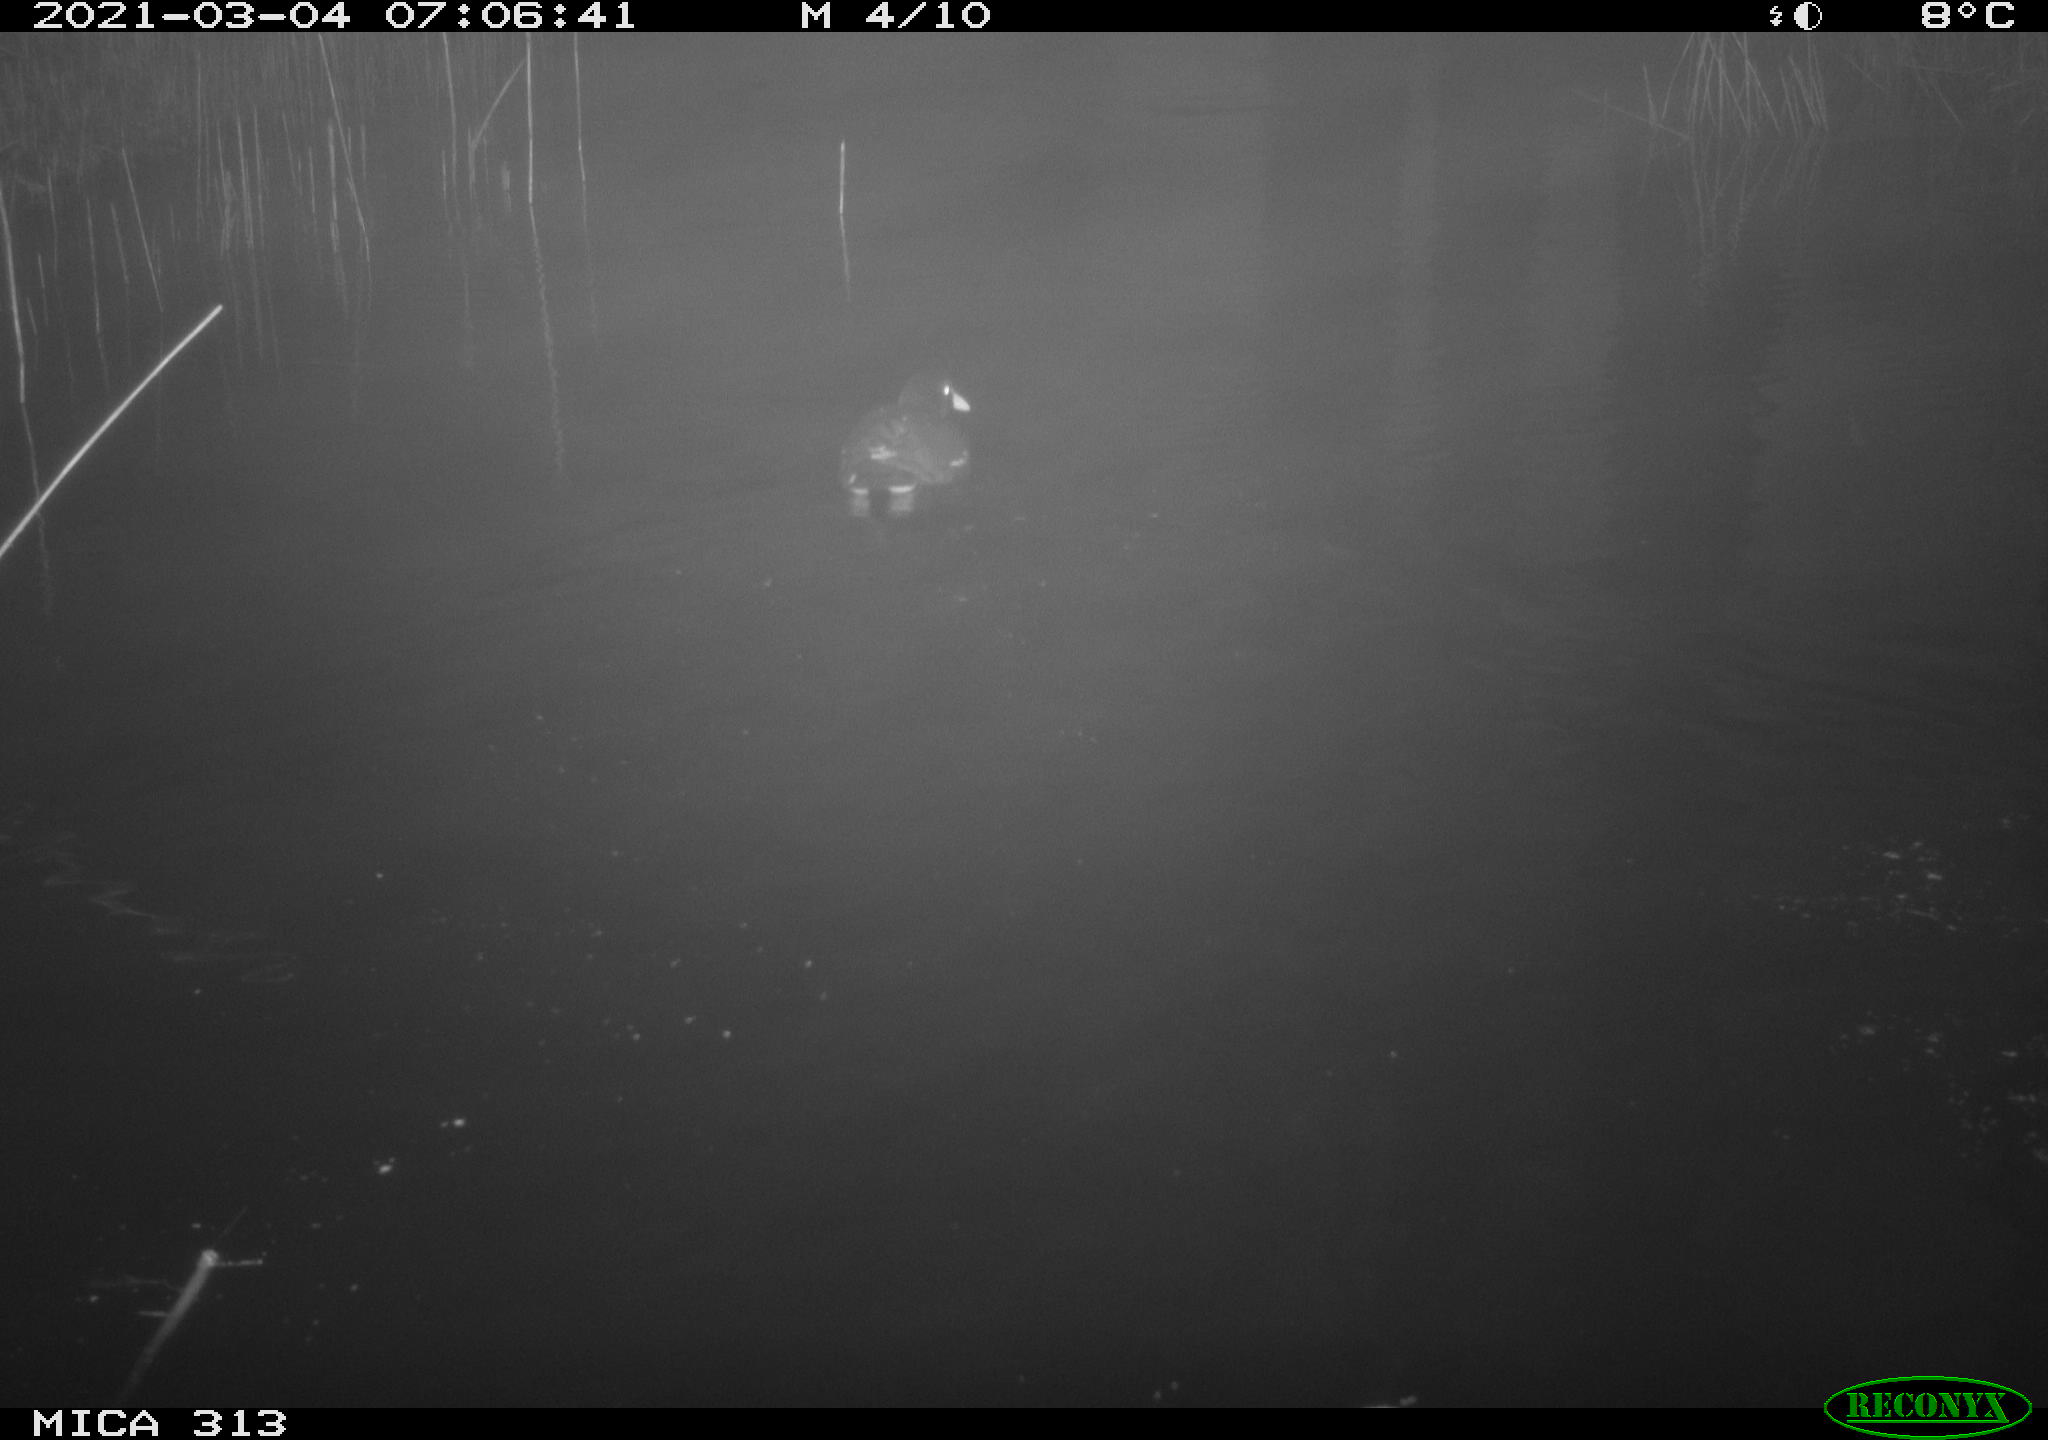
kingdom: Animalia
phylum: Chordata
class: Aves
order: Anseriformes
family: Anatidae
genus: Mareca
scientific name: Mareca strepera
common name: Gadwall
